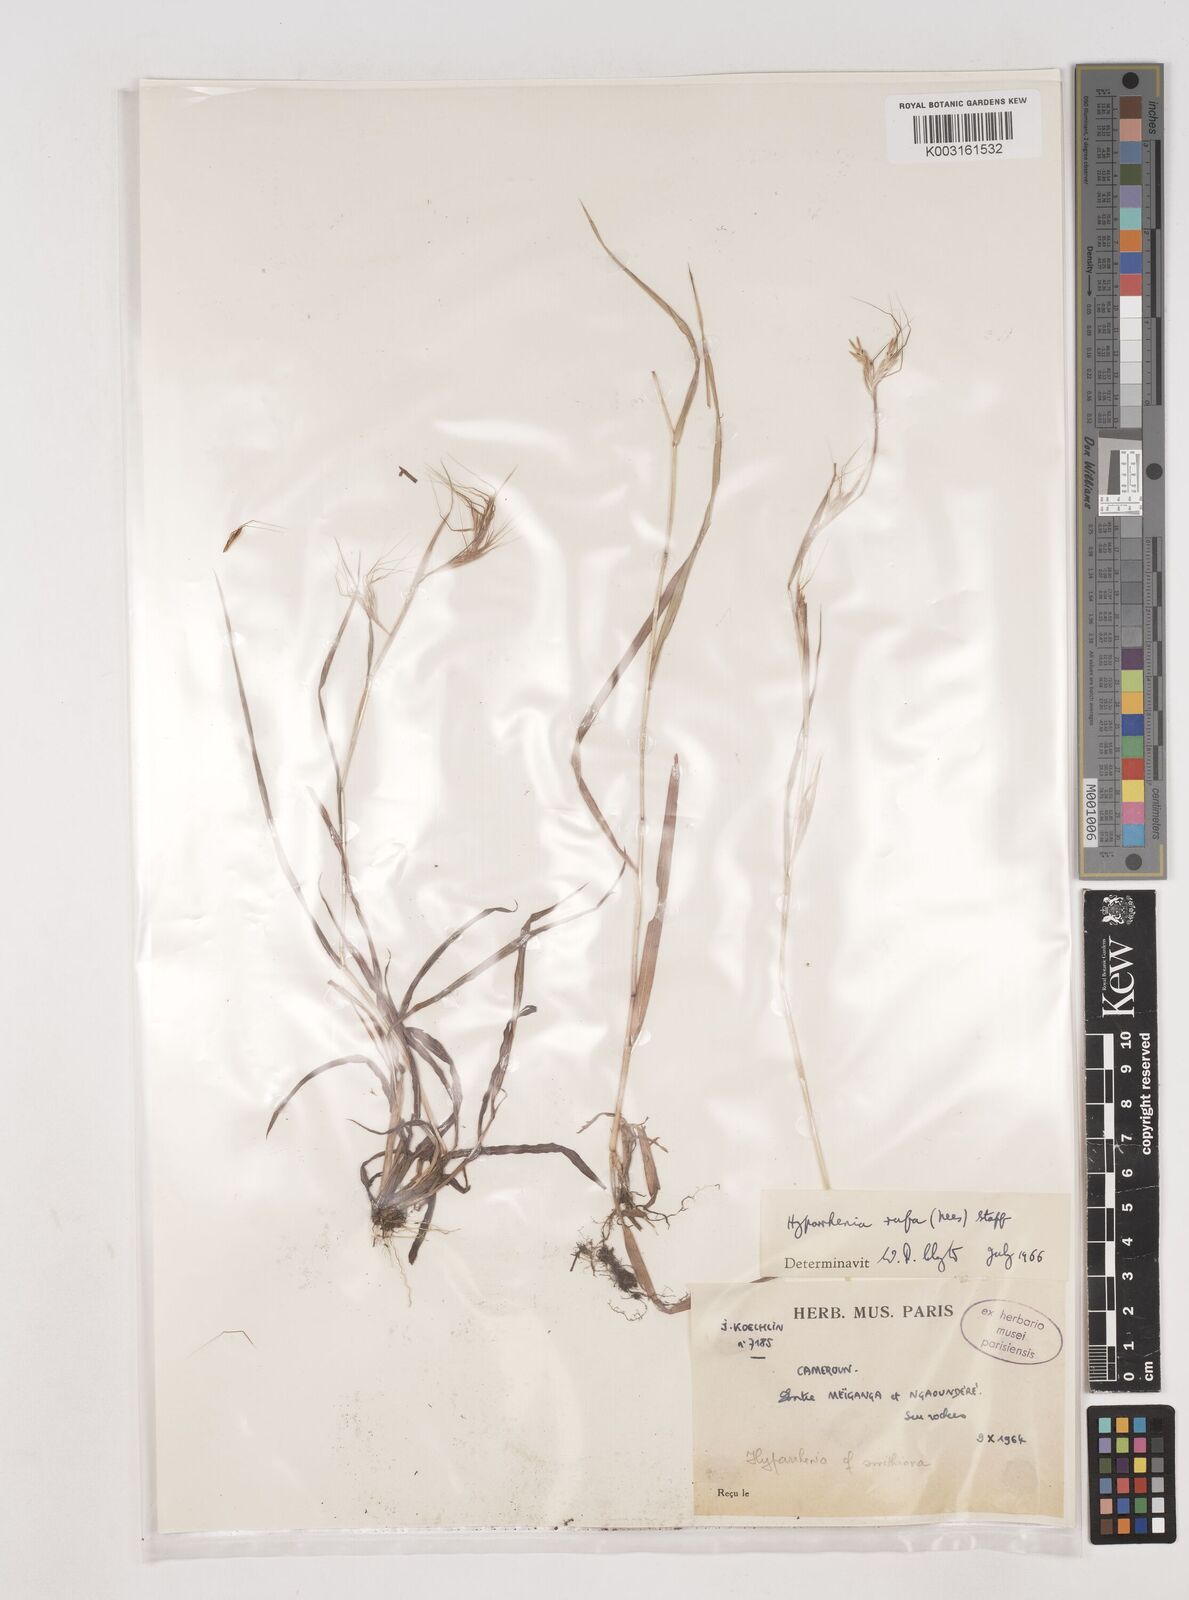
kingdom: Plantae
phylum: Tracheophyta
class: Liliopsida
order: Poales
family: Poaceae
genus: Hyparrhenia
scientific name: Hyparrhenia rufa
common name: Jaraguagrass
